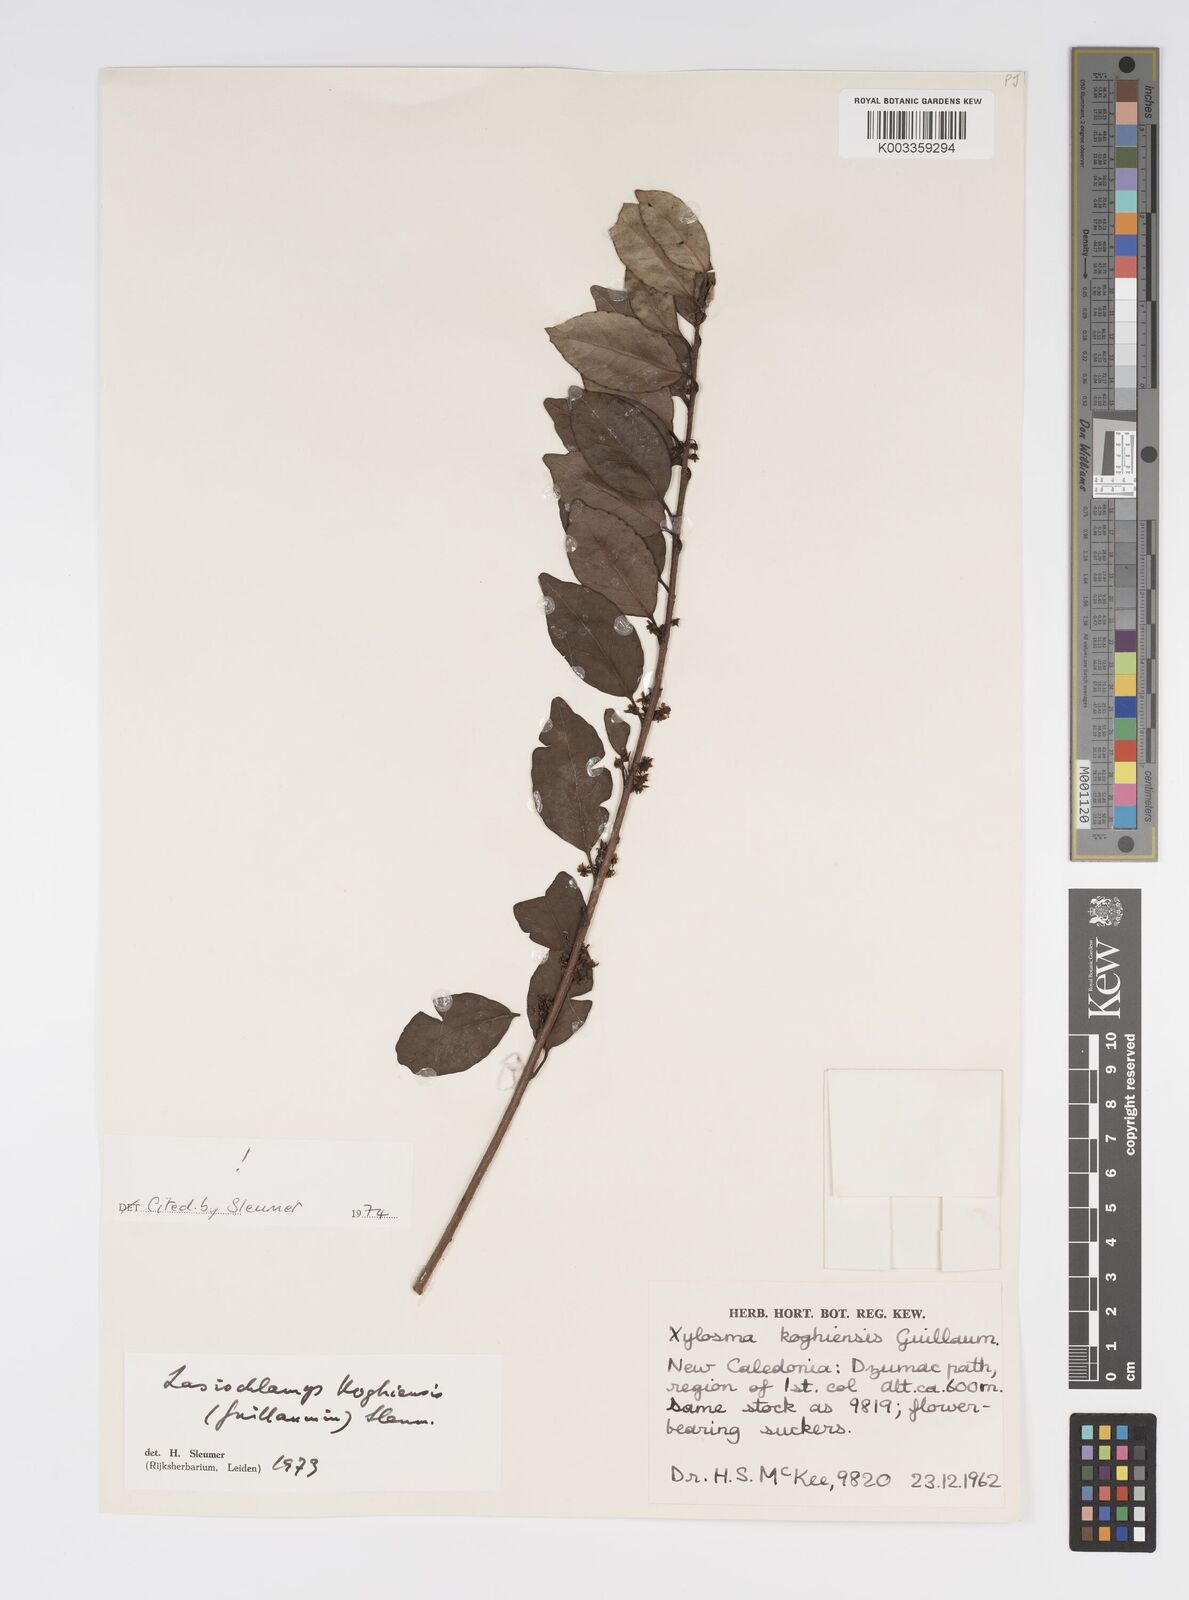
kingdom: Plantae
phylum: Tracheophyta
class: Magnoliopsida
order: Malpighiales
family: Salicaceae
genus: Lasiochlamys
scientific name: Lasiochlamys koghiensis
